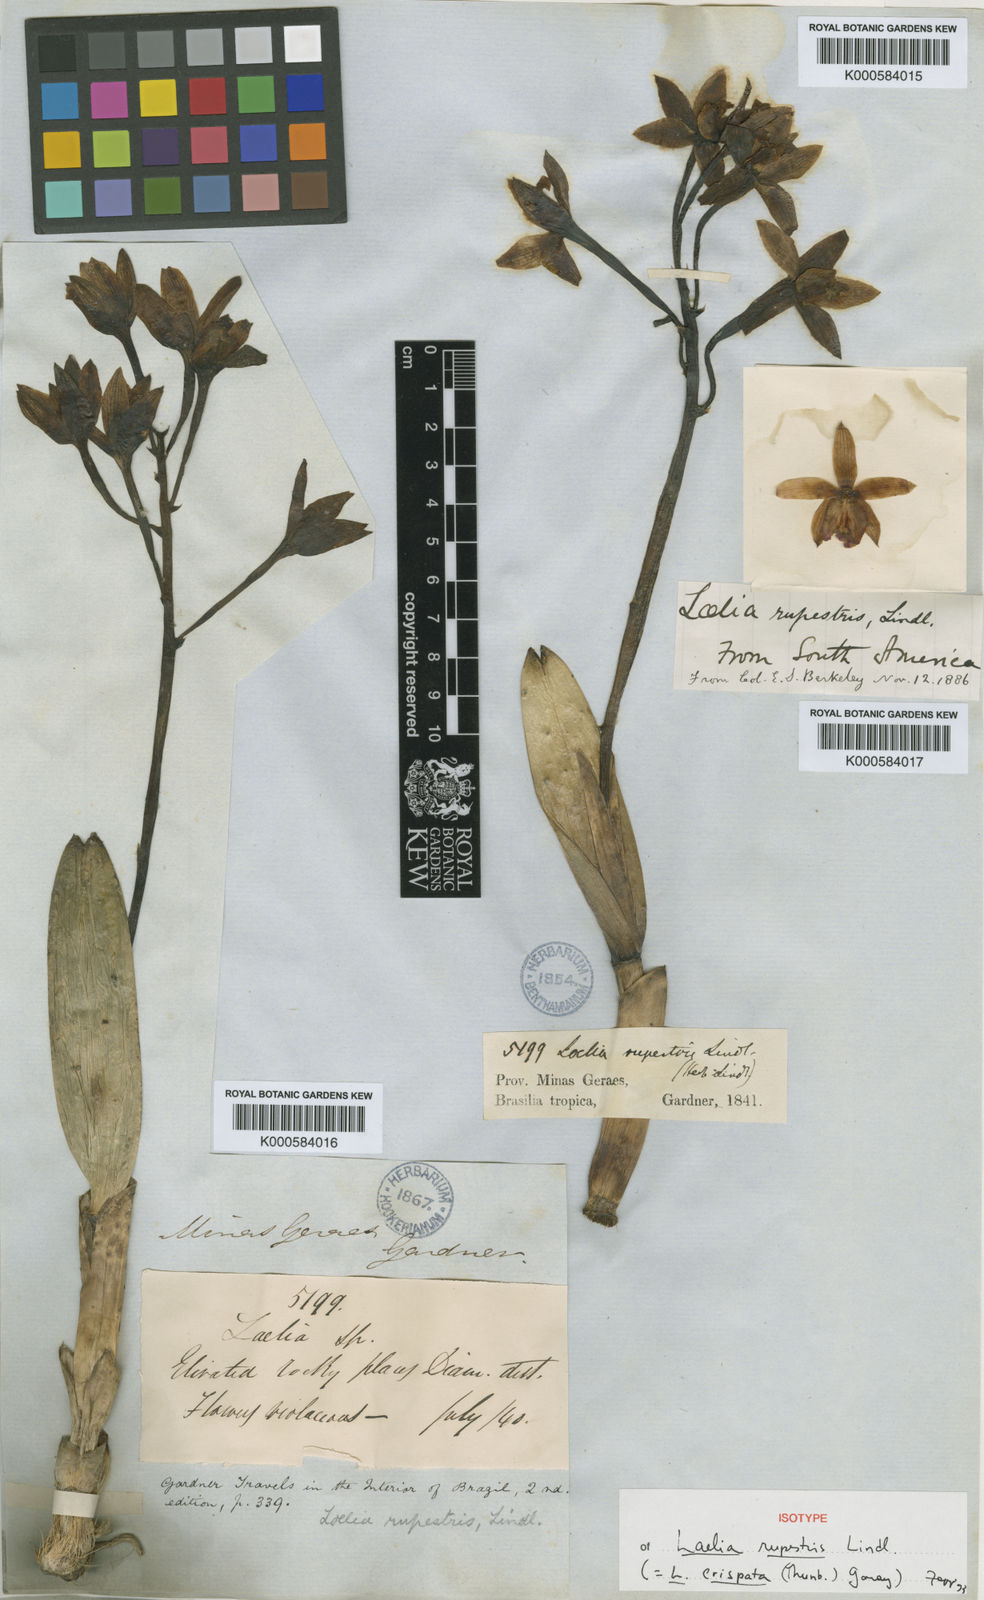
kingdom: Plantae
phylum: Tracheophyta
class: Liliopsida
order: Asparagales
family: Orchidaceae
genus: Cattleya
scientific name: Cattleya crispata
